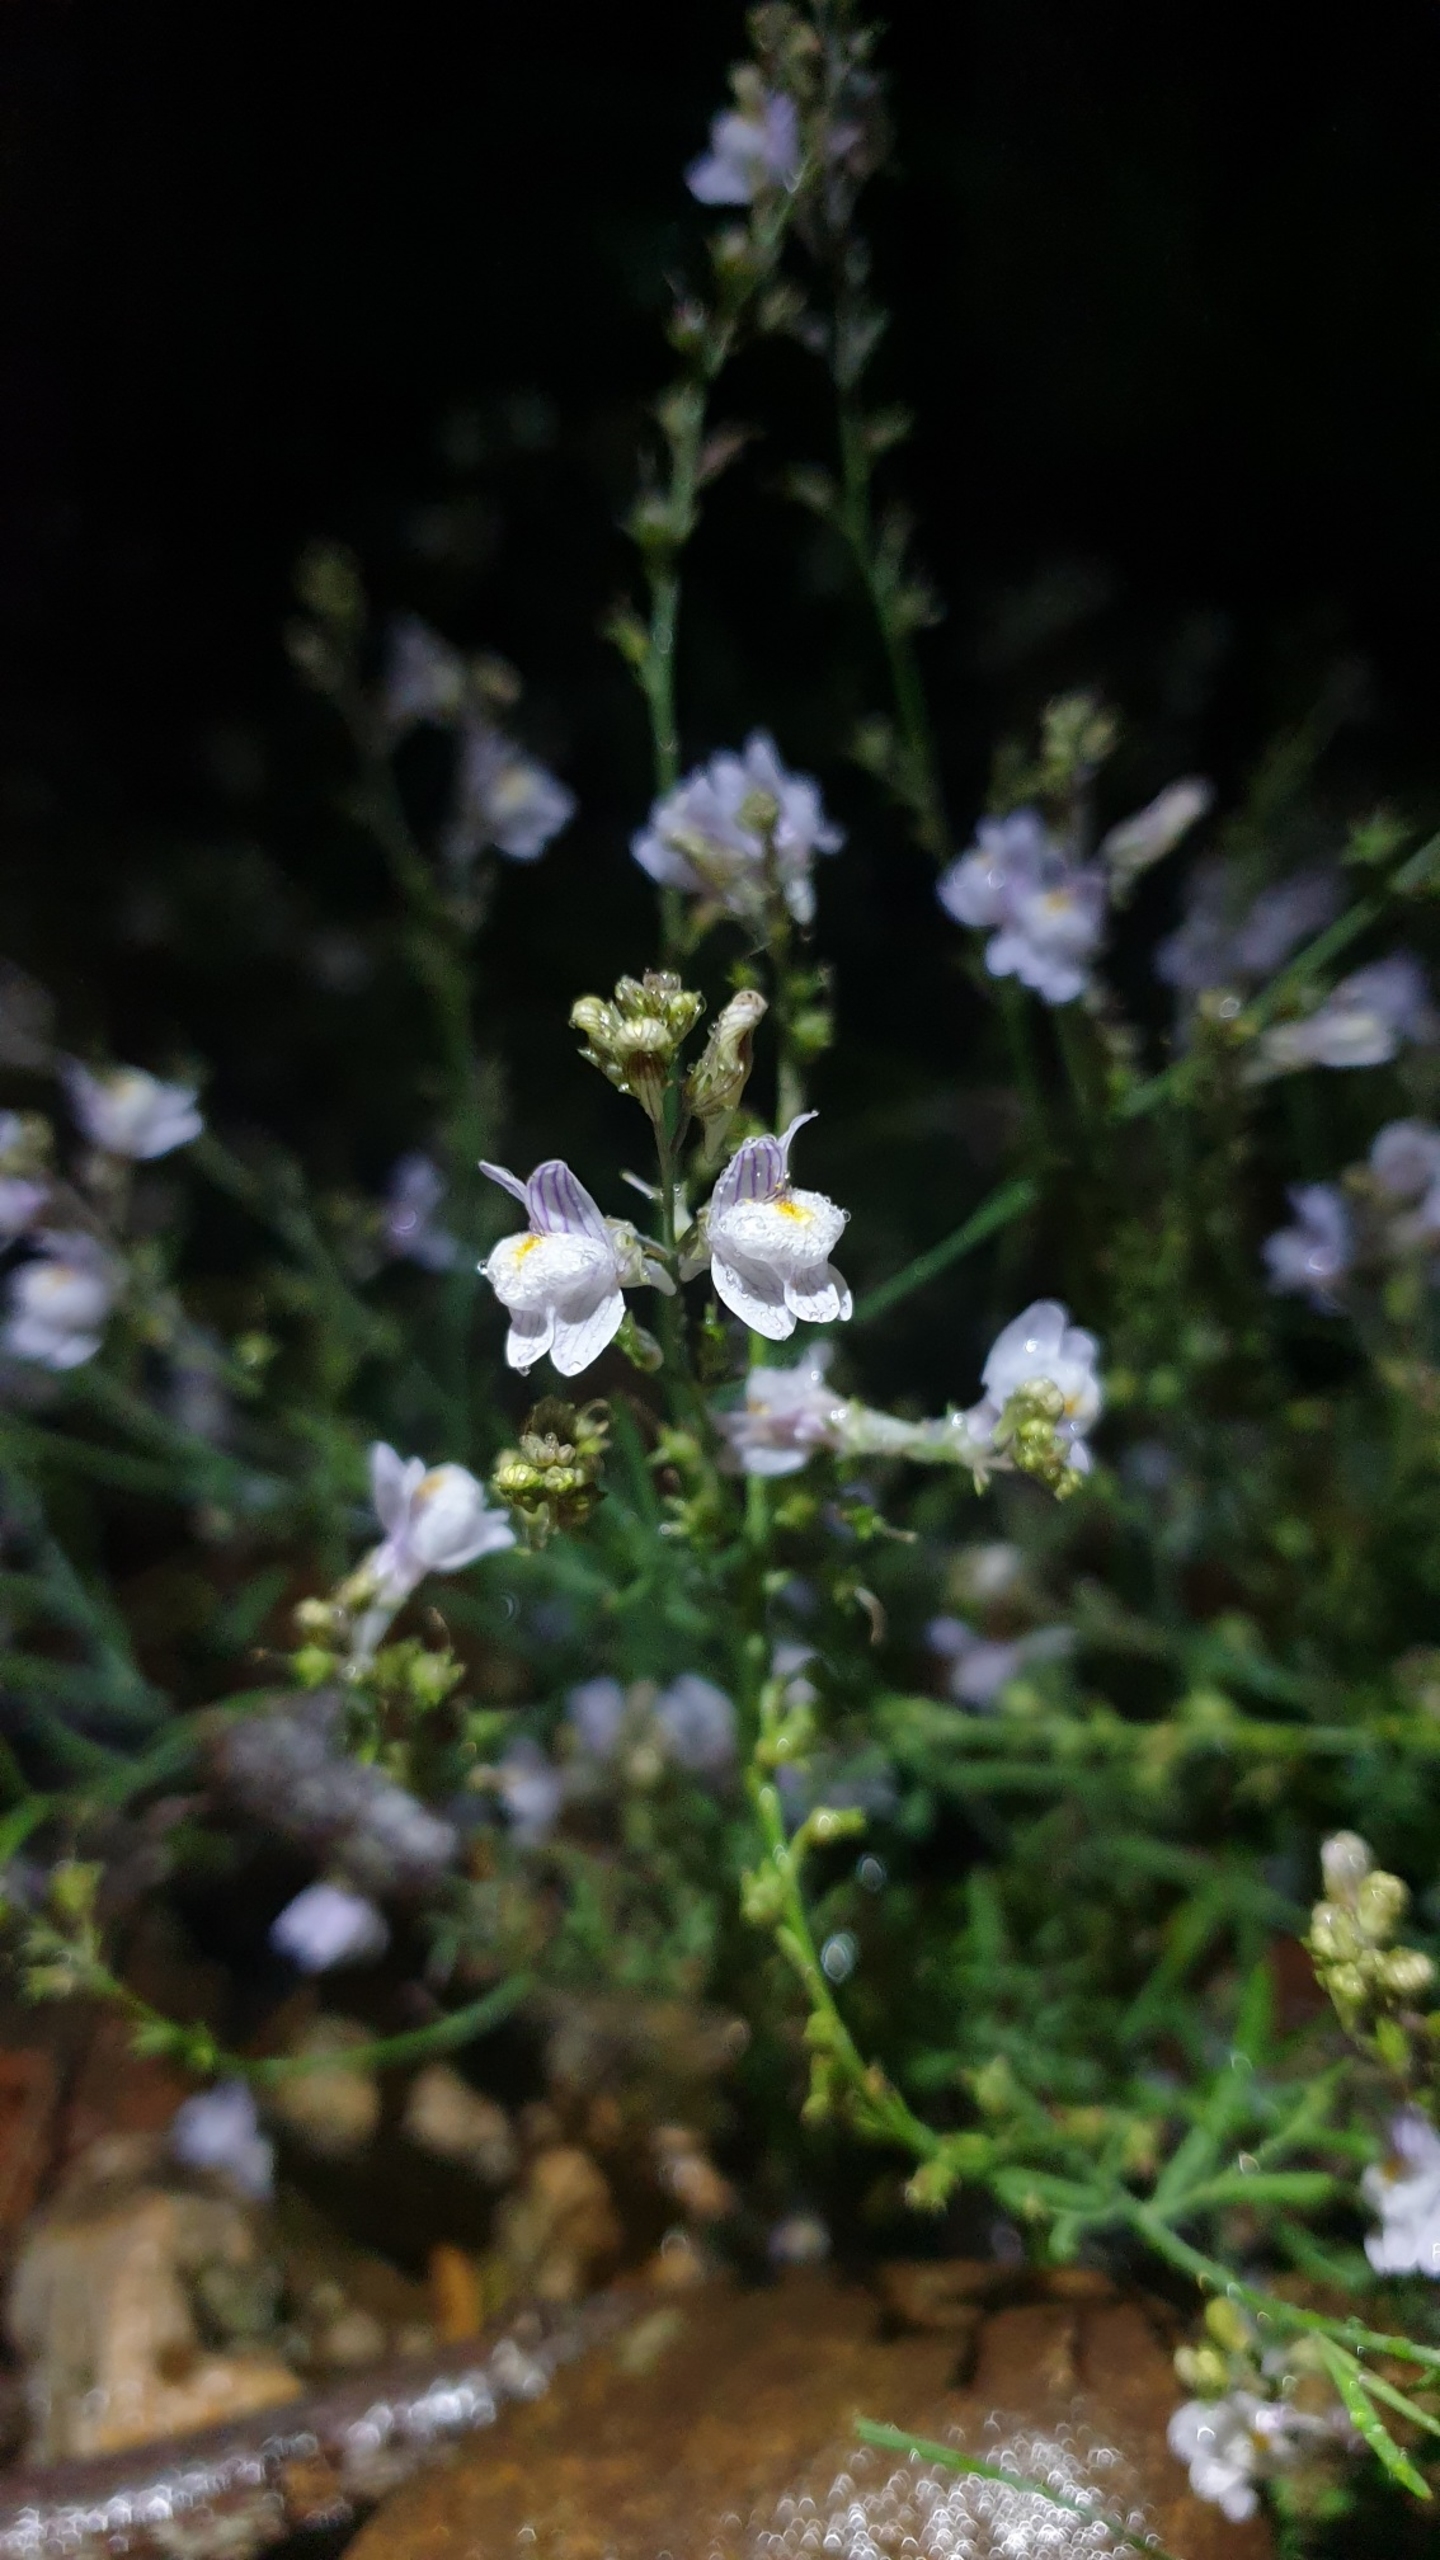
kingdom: Plantae
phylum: Tracheophyta
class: Magnoliopsida
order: Lamiales
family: Plantaginaceae
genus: Linaria
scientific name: Linaria repens
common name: Stribet torskemund
